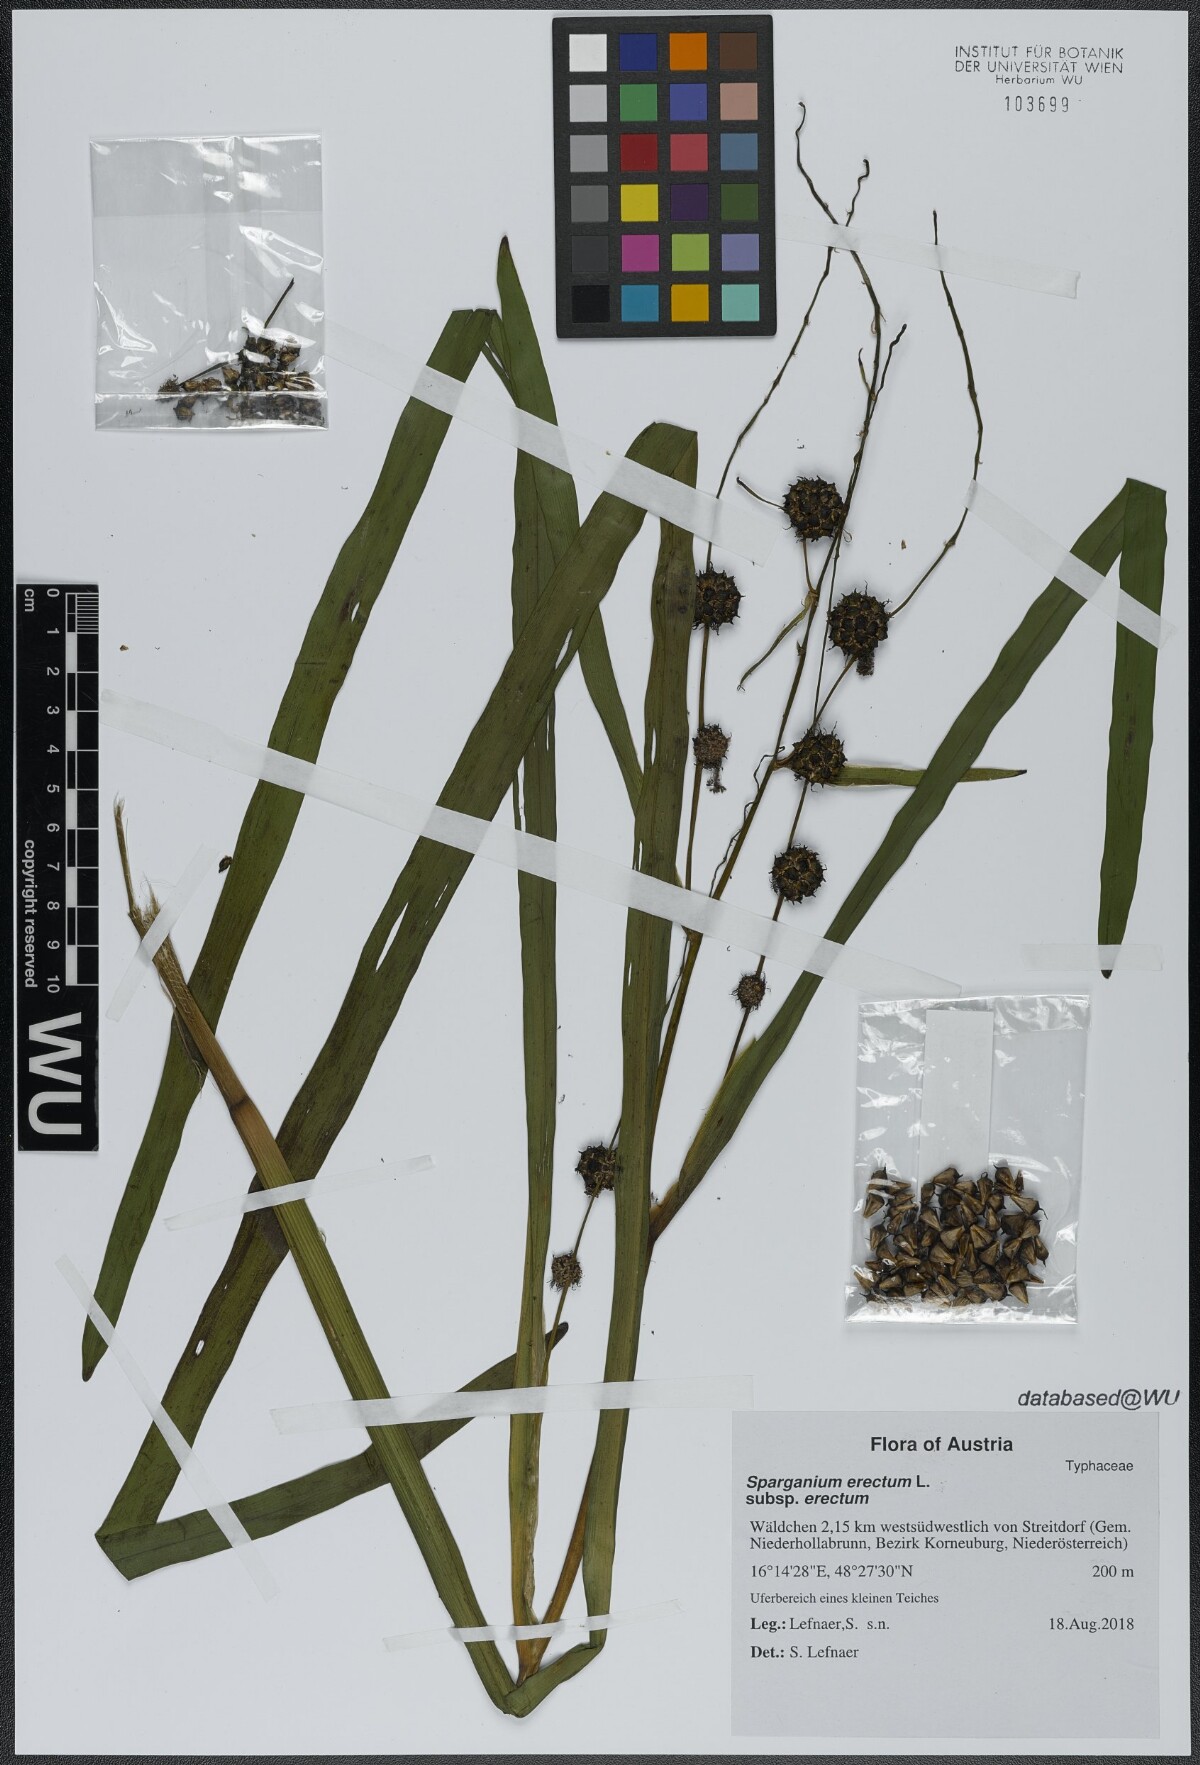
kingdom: Plantae
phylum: Tracheophyta
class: Liliopsida
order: Poales
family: Typhaceae
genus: Sparganium
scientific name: Sparganium erectum
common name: Branched bur-reed
